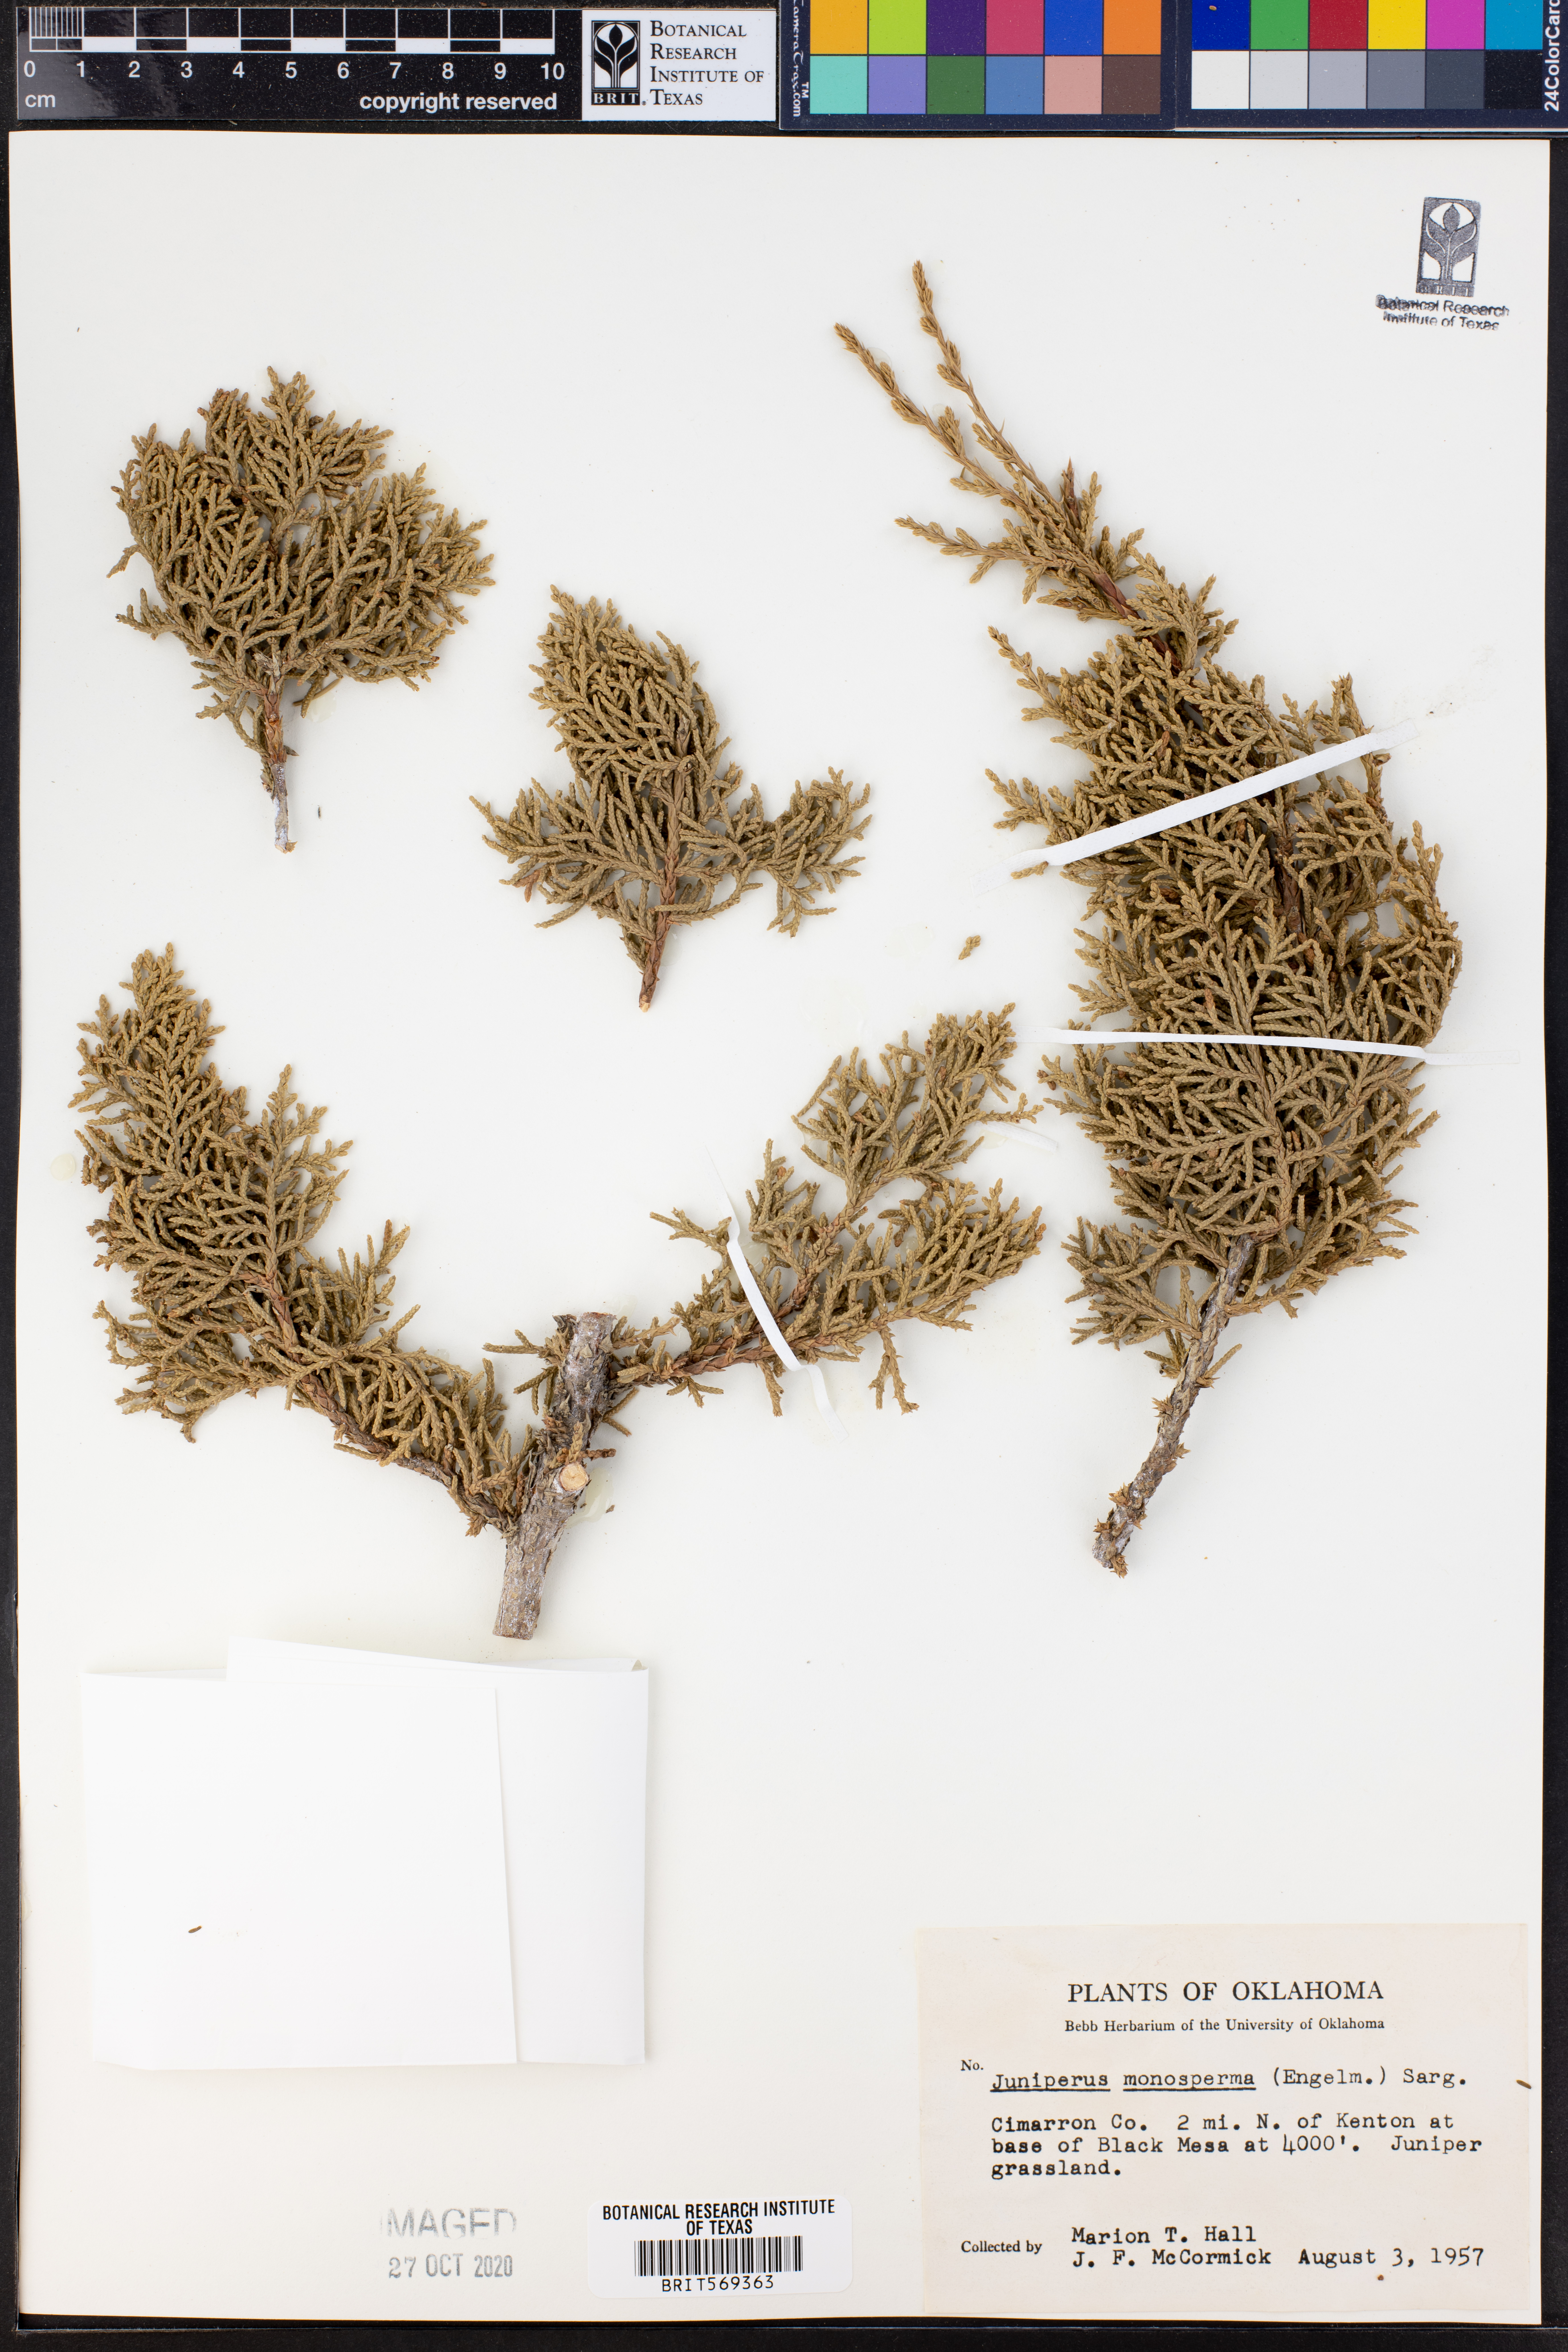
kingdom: Plantae
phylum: Tracheophyta
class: Pinopsida
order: Pinales
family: Cupressaceae
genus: Juniperus
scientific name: Juniperus monosperma
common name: One-seed juniper
